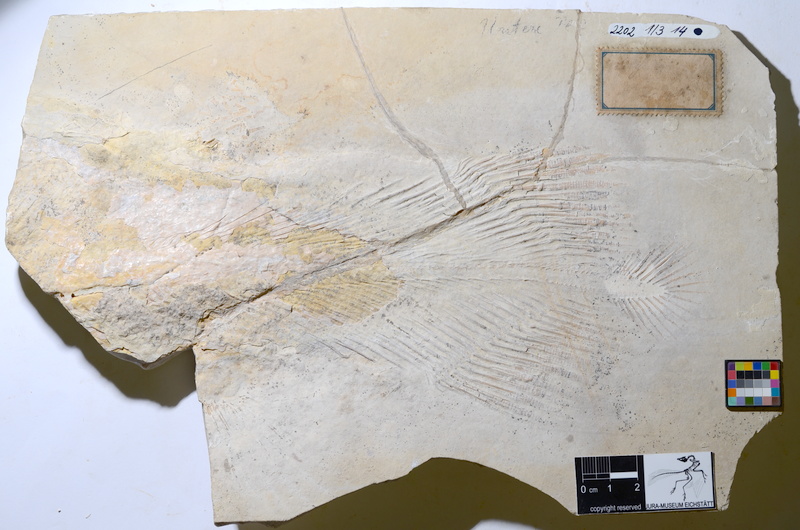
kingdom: Animalia
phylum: Chordata
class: Coelacanthi
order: Coelacanthiformes
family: Mawsoniidae
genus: Libys
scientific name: Libys polypterus
